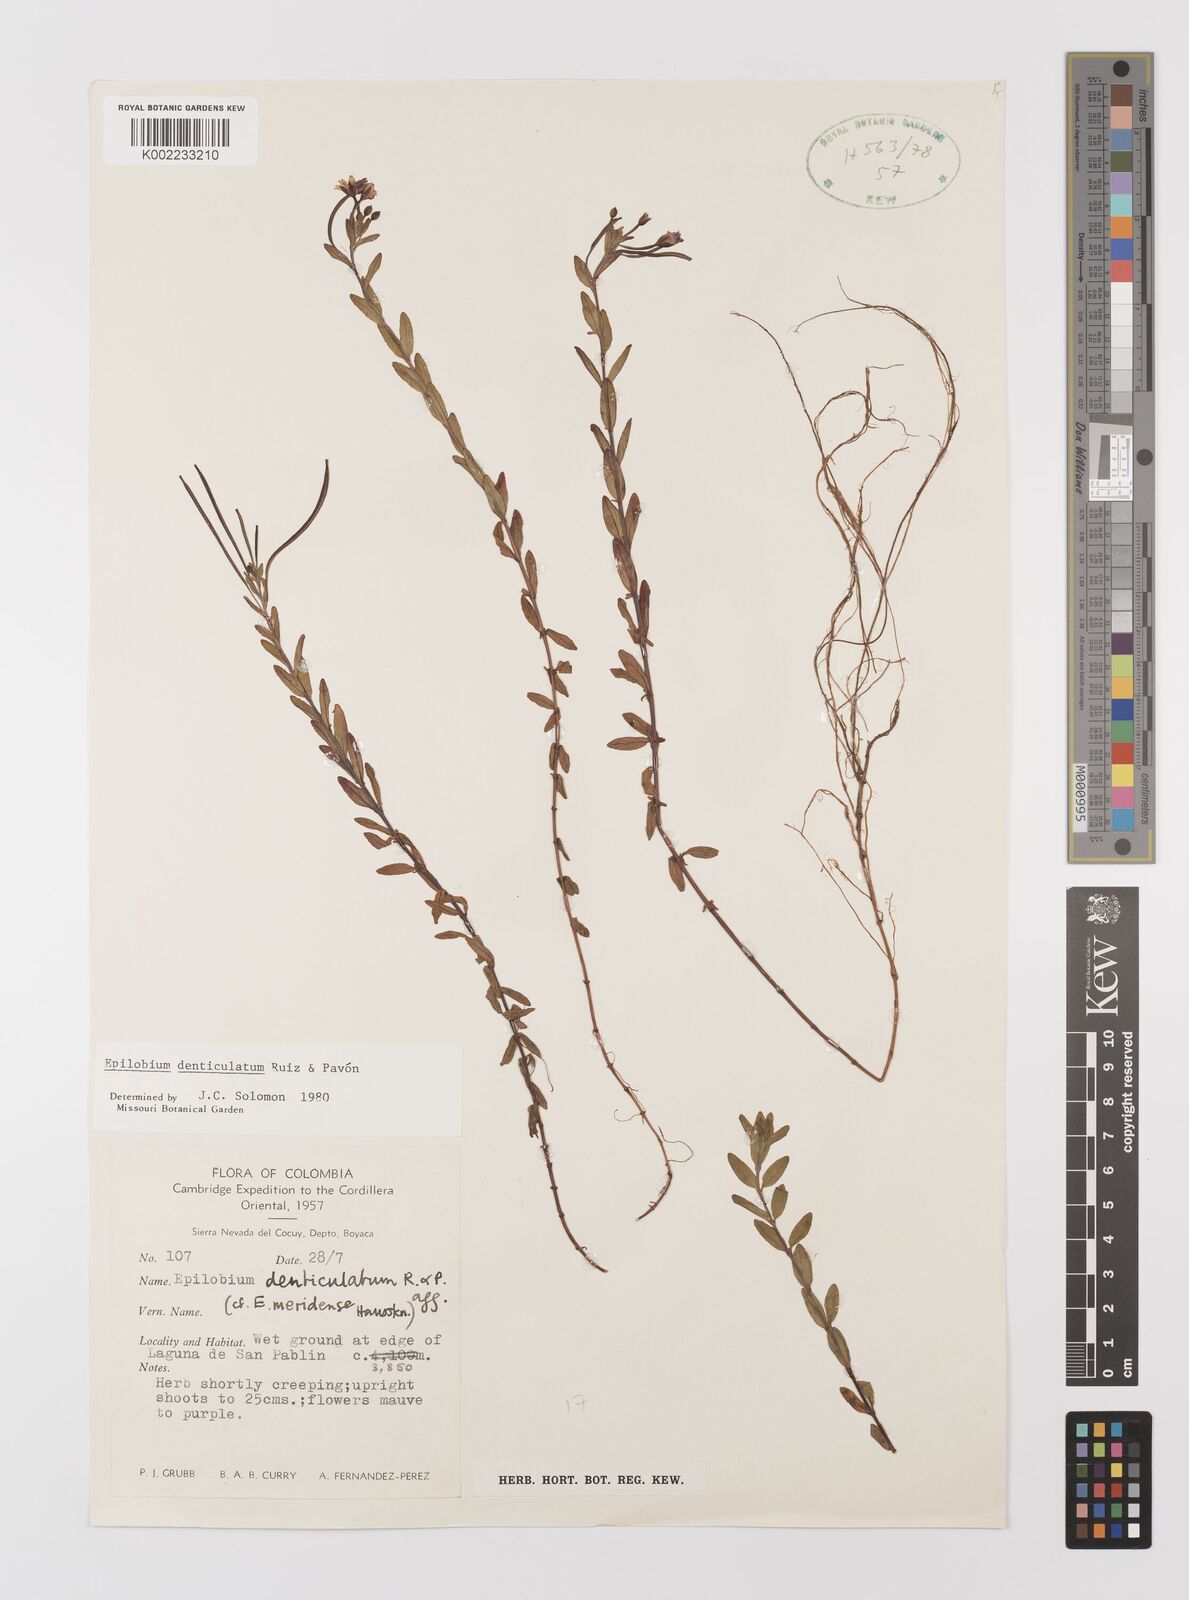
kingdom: Plantae
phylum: Tracheophyta
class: Magnoliopsida
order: Myrtales
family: Onagraceae
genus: Epilobium
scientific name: Epilobium denticulatum
